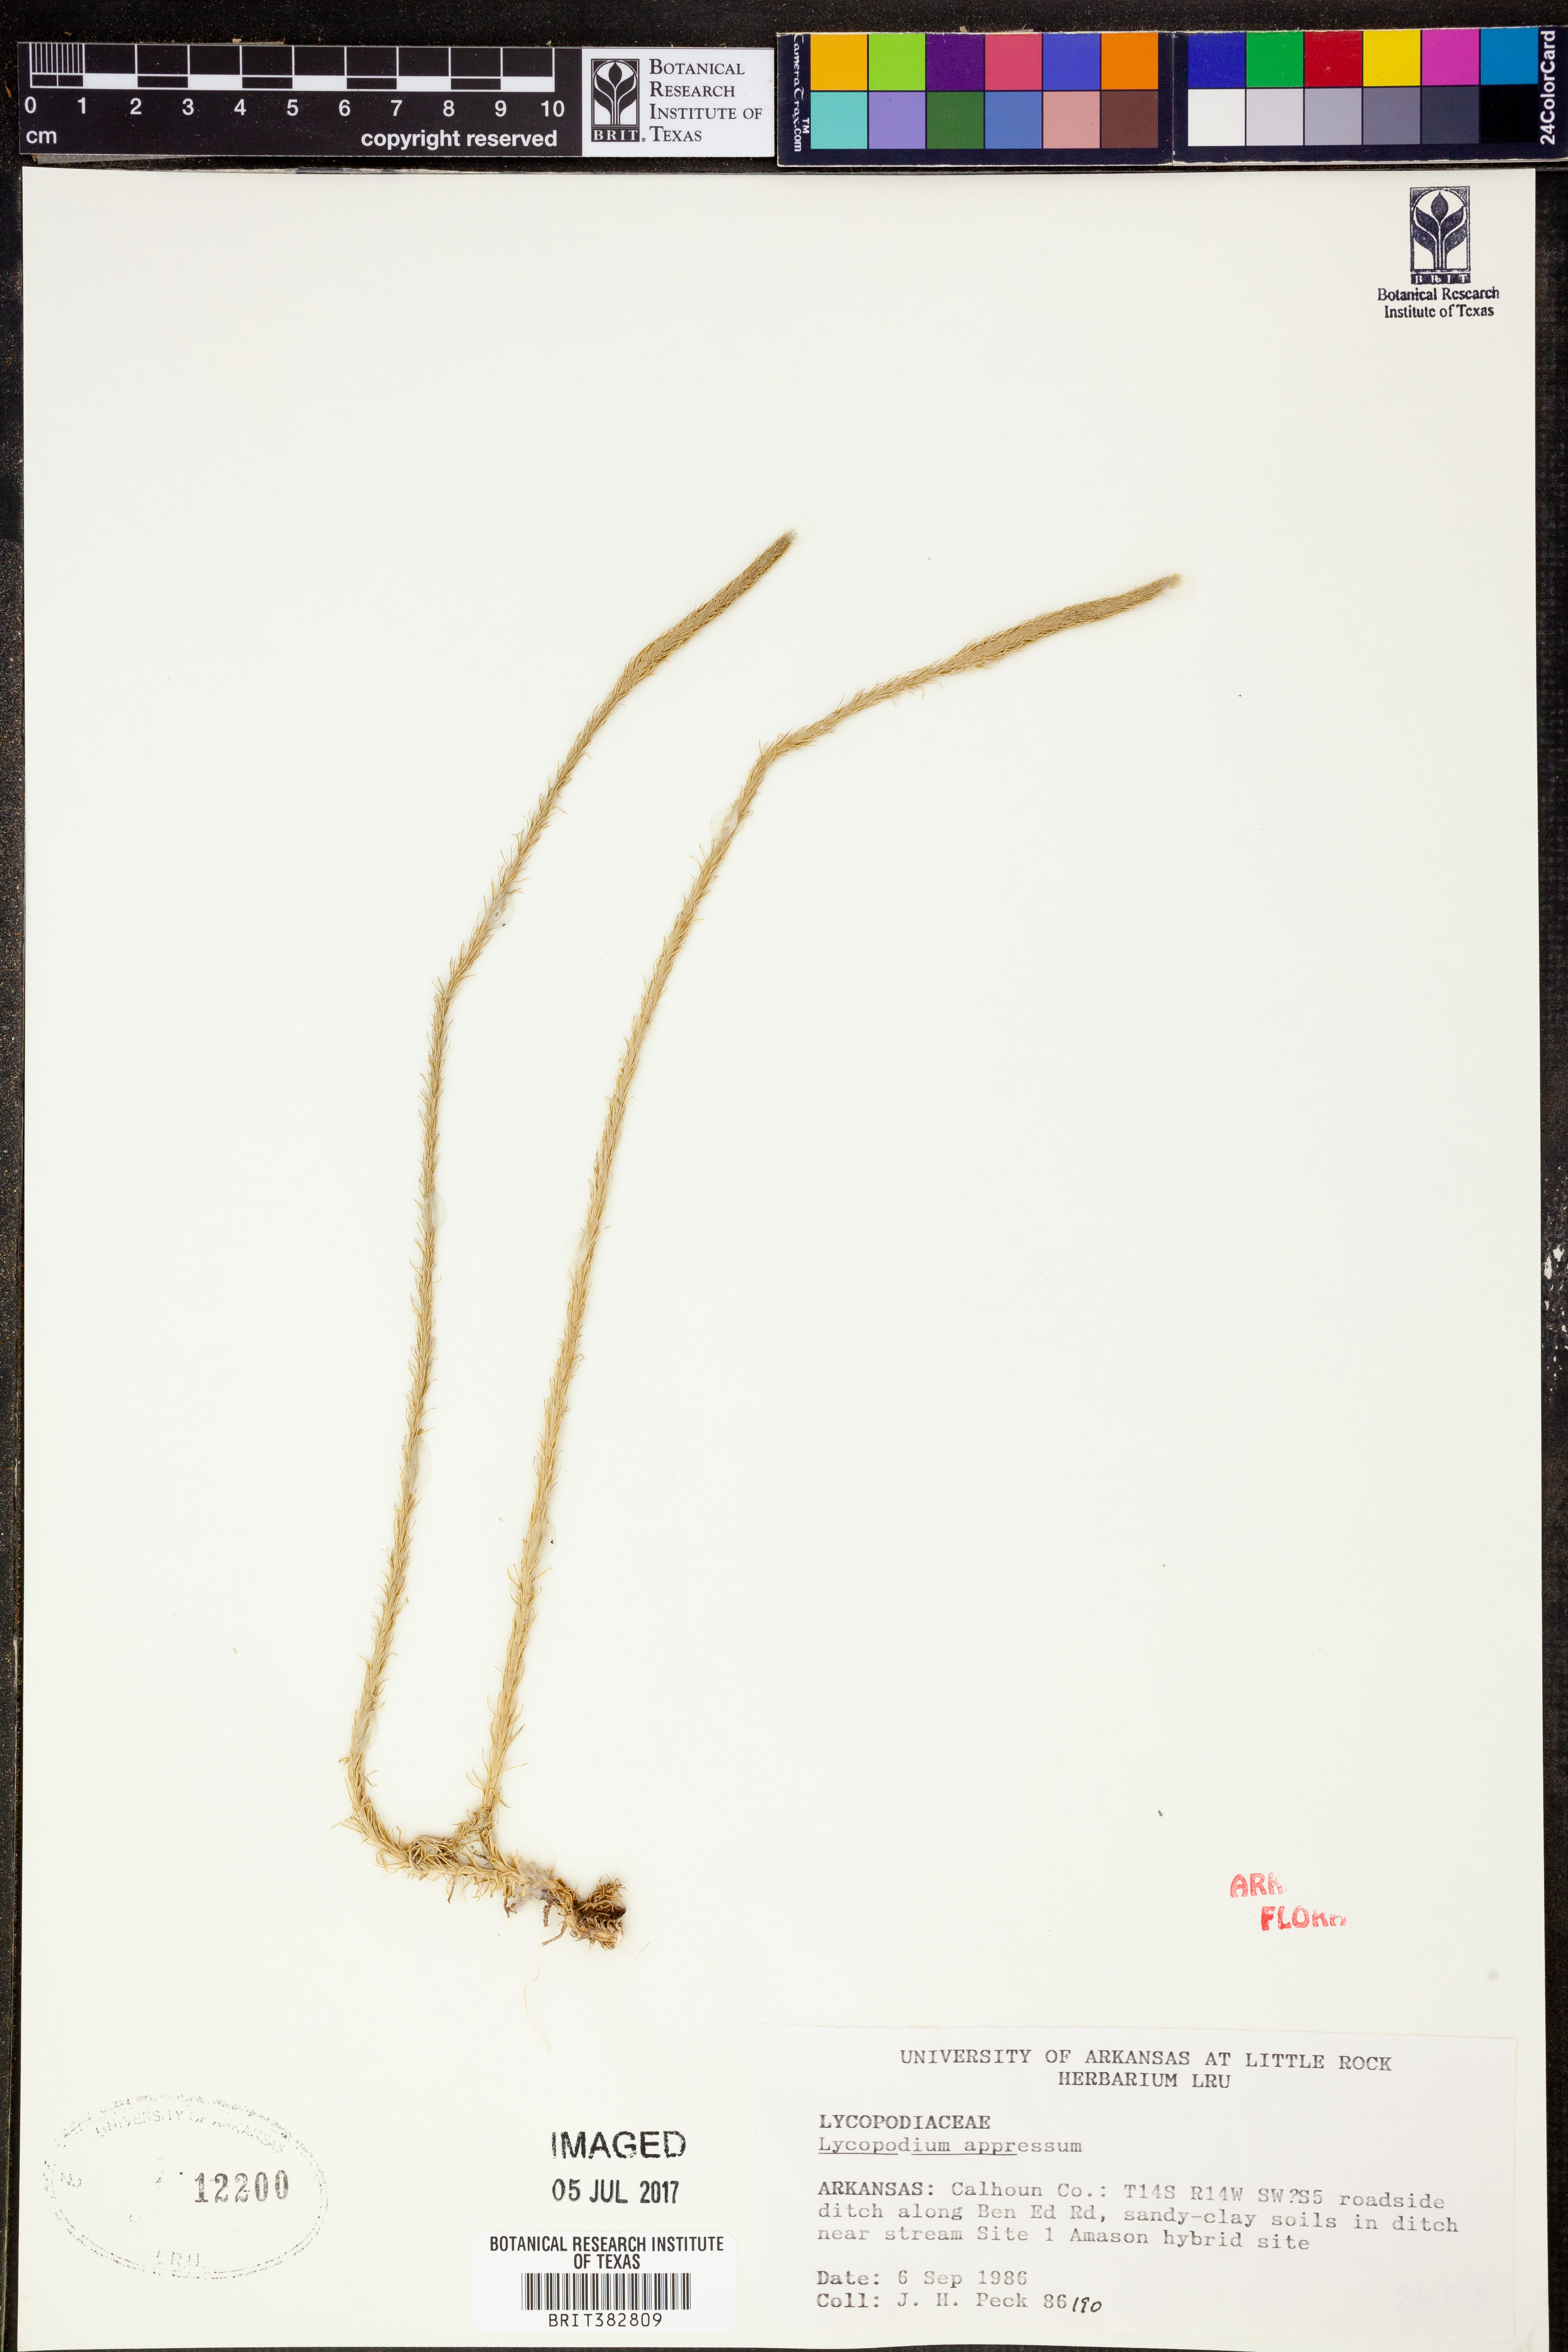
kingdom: Plantae
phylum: Tracheophyta
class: Lycopodiopsida
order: Lycopodiales
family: Lycopodiaceae
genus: Lycopodiella
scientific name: Lycopodiella appressa
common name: Appressed bog clubmoss
